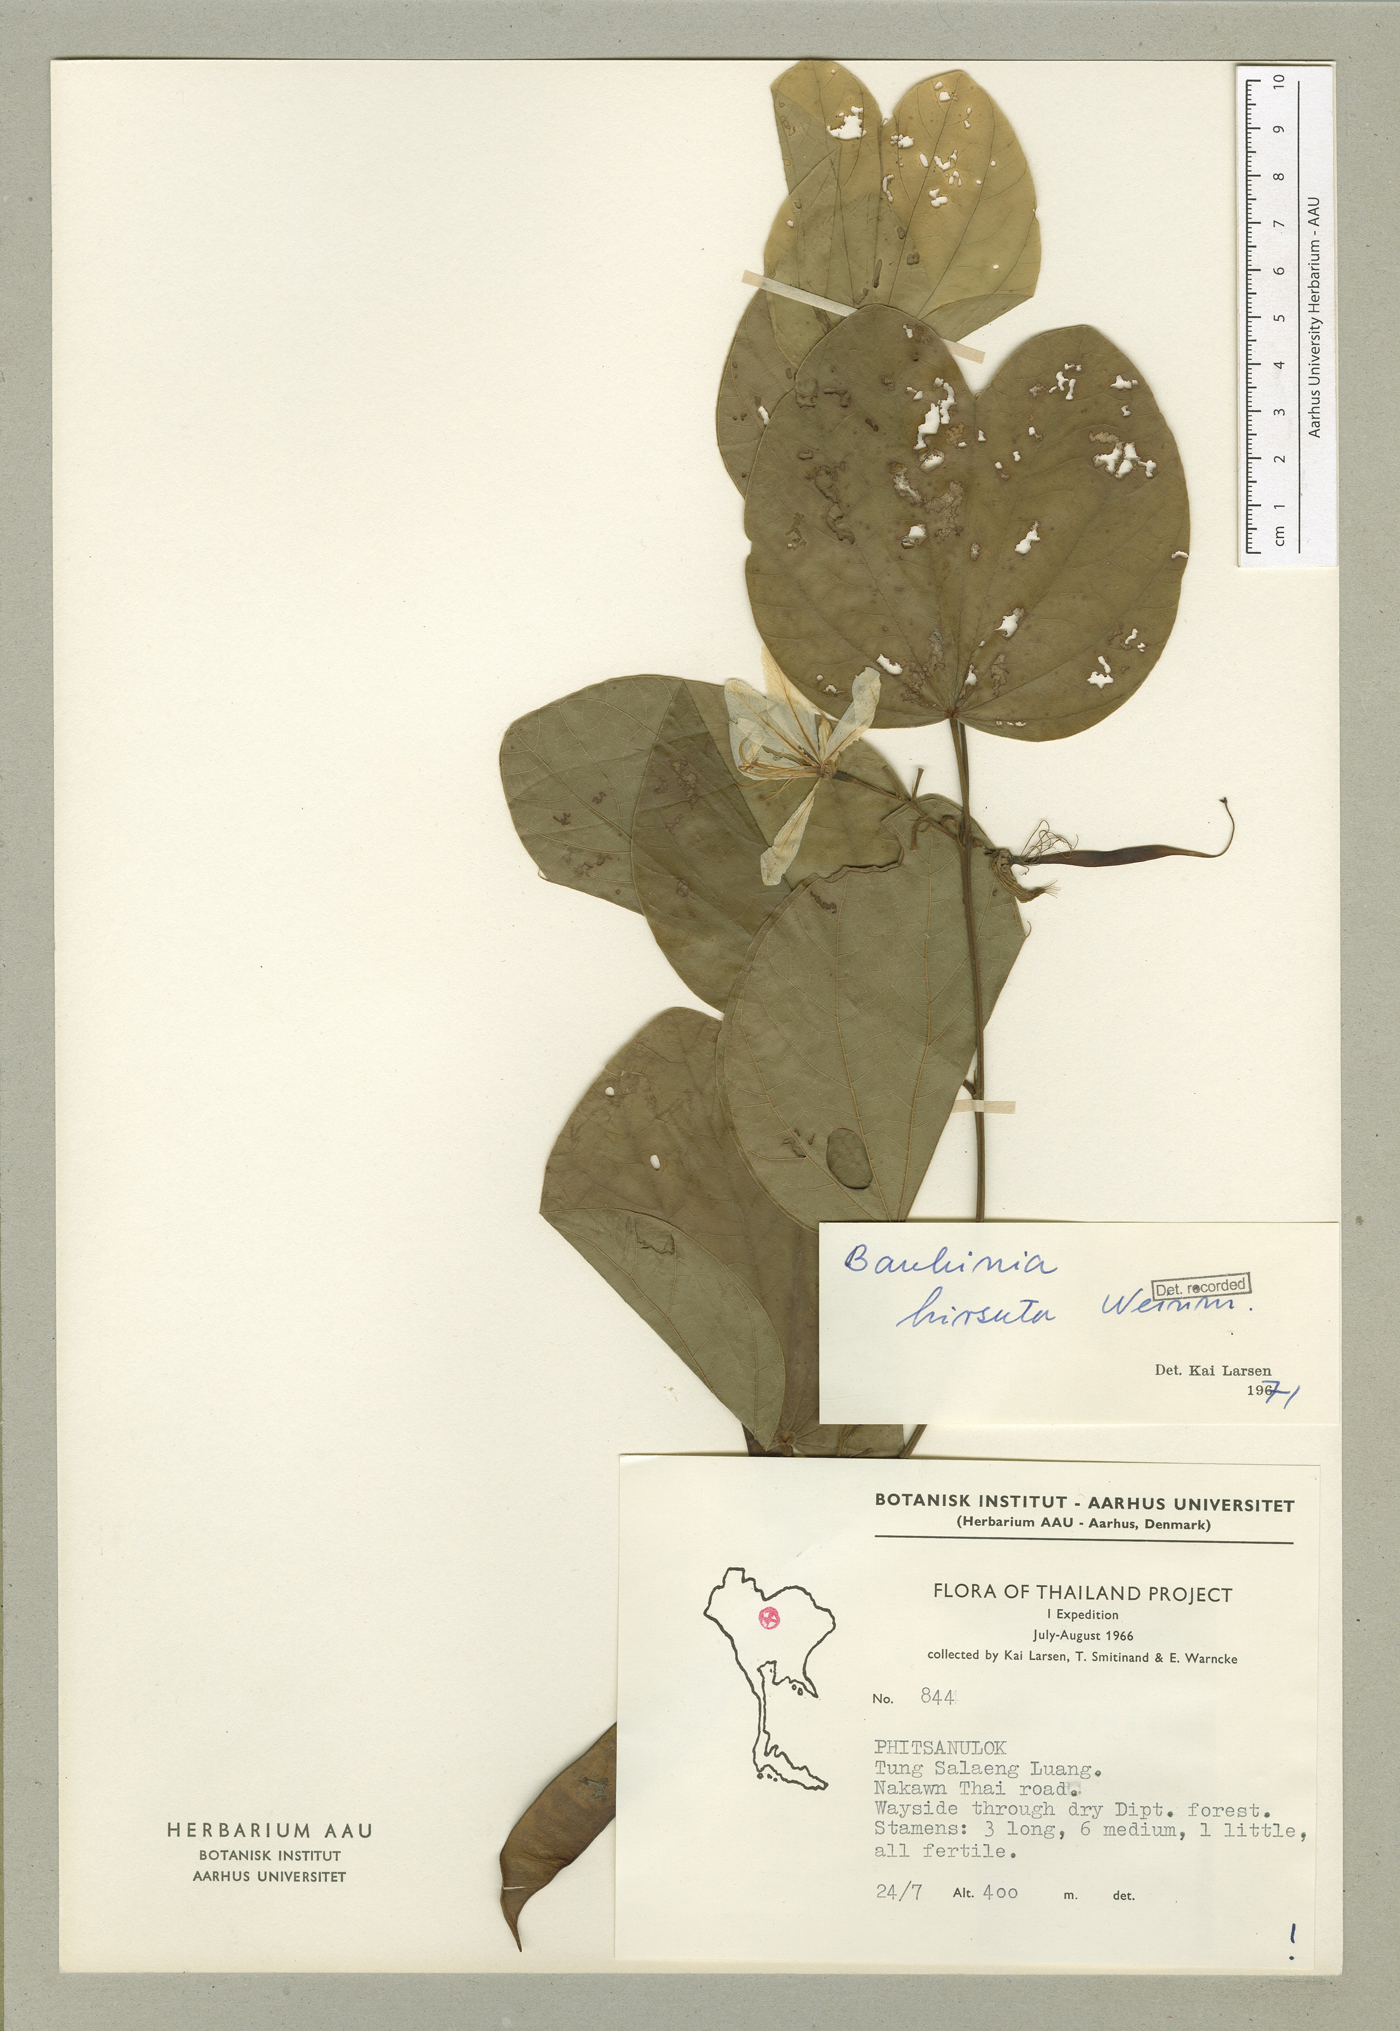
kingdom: Plantae
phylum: Tracheophyta
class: Magnoliopsida
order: Fabales
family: Fabaceae
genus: Bauhinia
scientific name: Bauhinia
